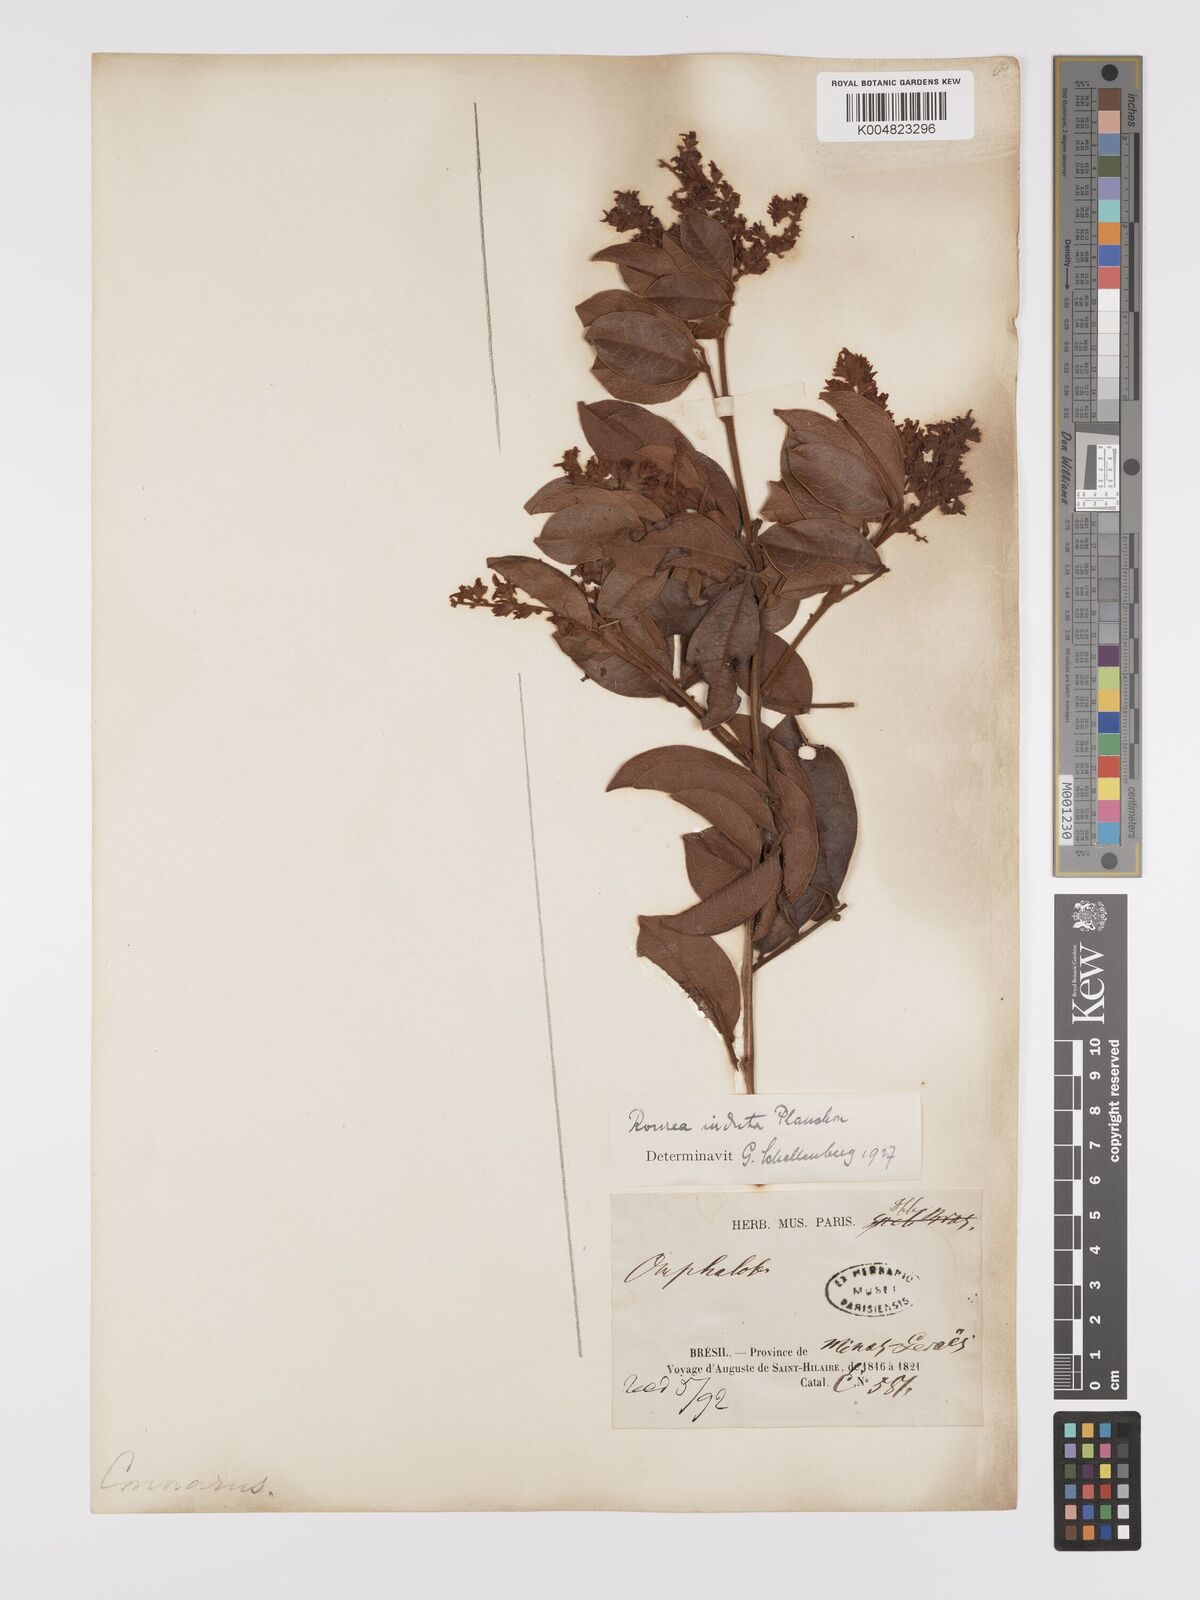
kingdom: Plantae
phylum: Tracheophyta
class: Magnoliopsida
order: Oxalidales
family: Connaraceae
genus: Rourea
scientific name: Rourea induta
